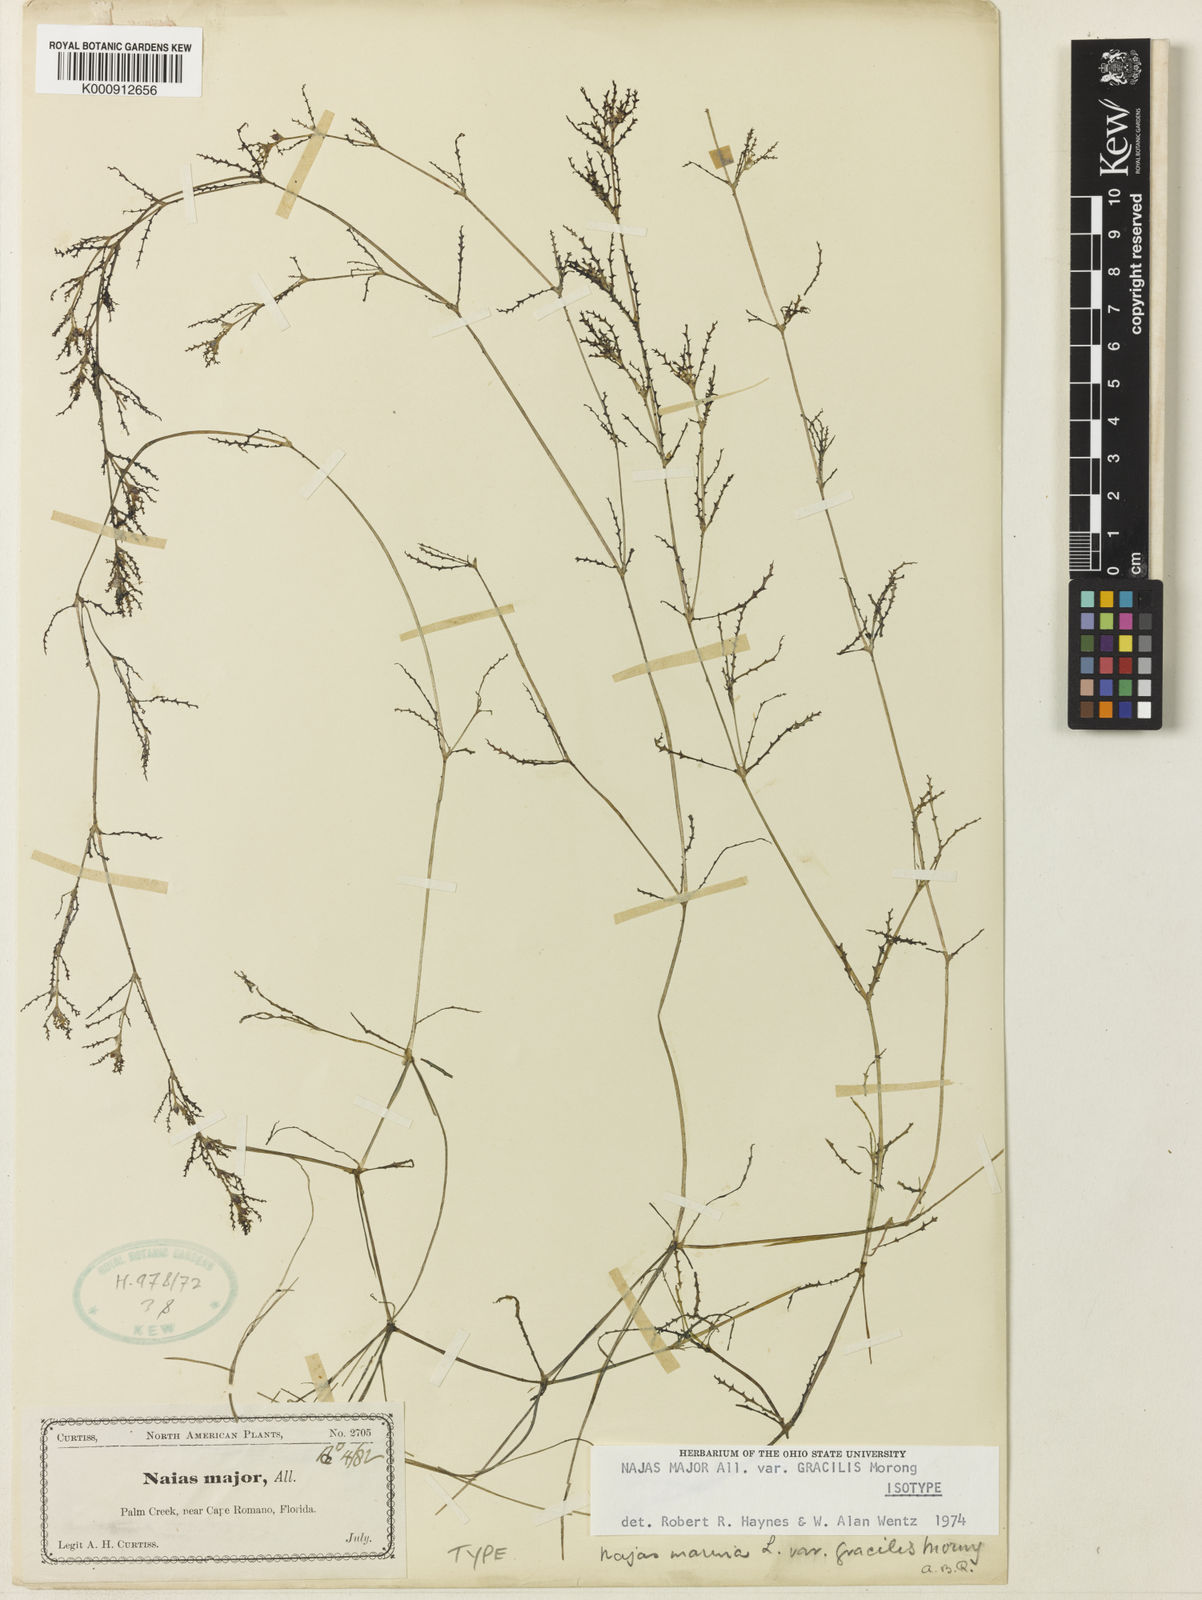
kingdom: Plantae
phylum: Tracheophyta
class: Liliopsida
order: Alismatales
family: Hydrocharitaceae
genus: Najas
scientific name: Najas major
